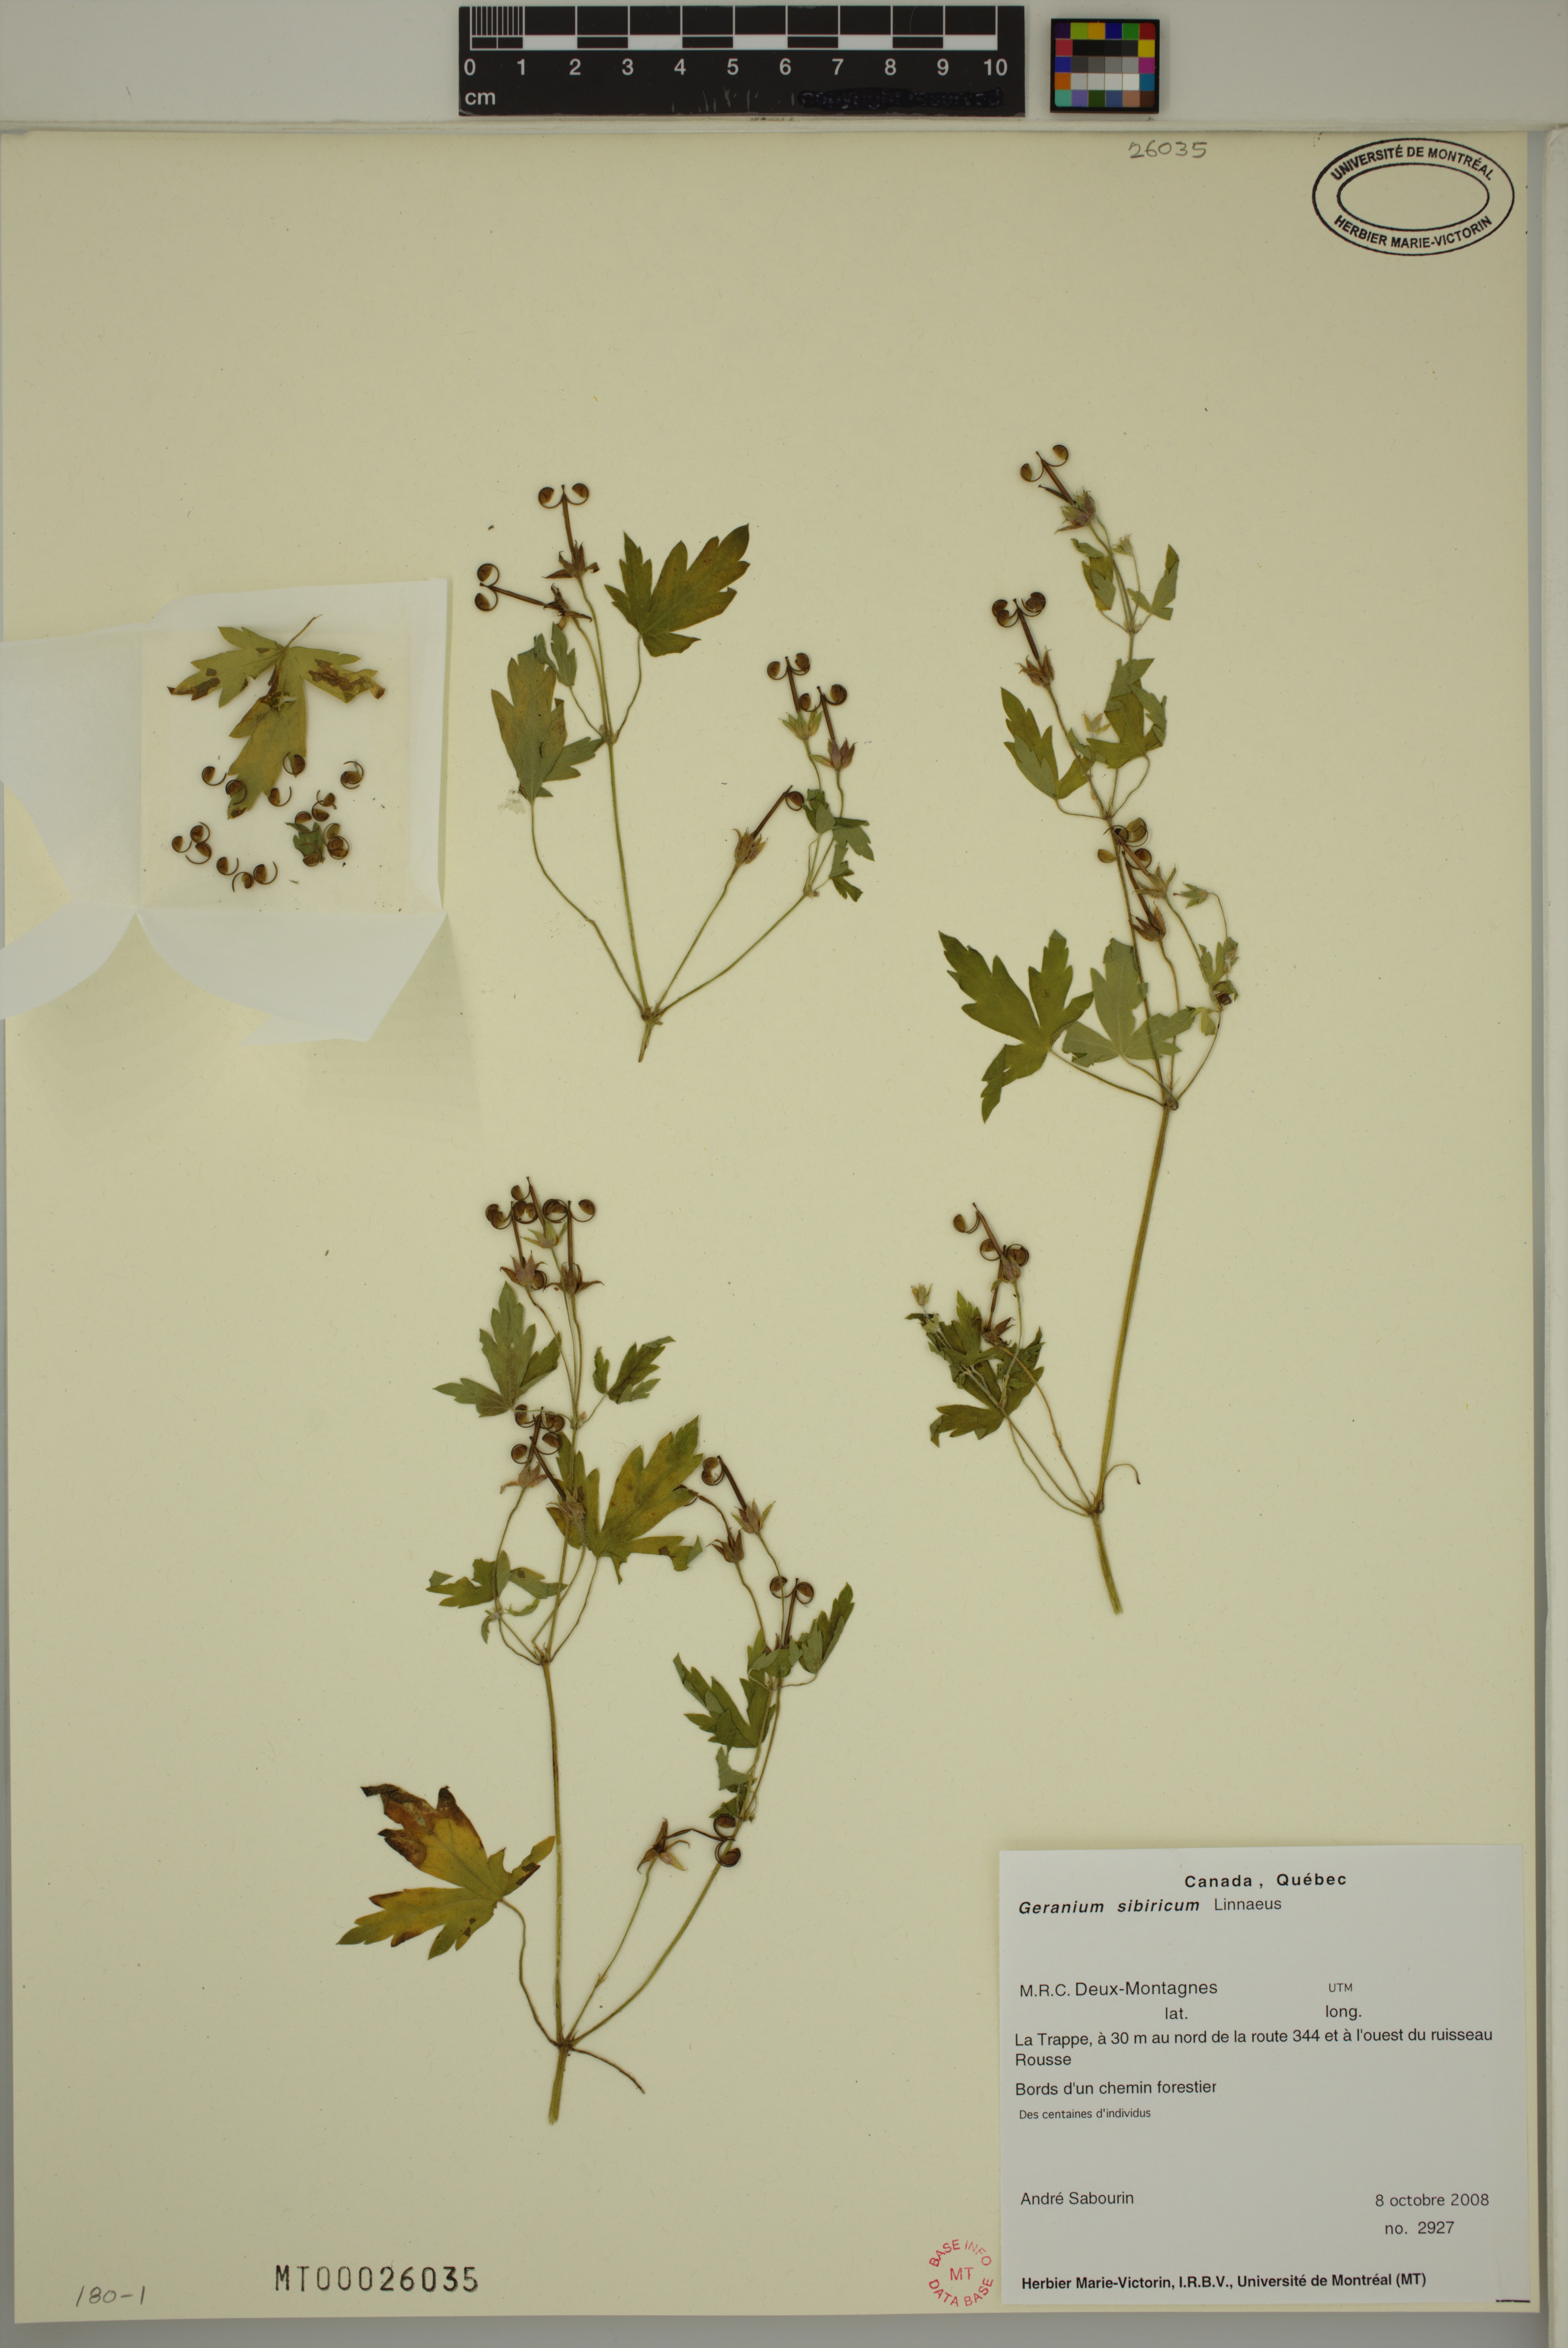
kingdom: Plantae
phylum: Tracheophyta
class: Magnoliopsida
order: Geraniales
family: Geraniaceae
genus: Geranium
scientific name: Geranium sibiricum
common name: Siberian crane's-bill
